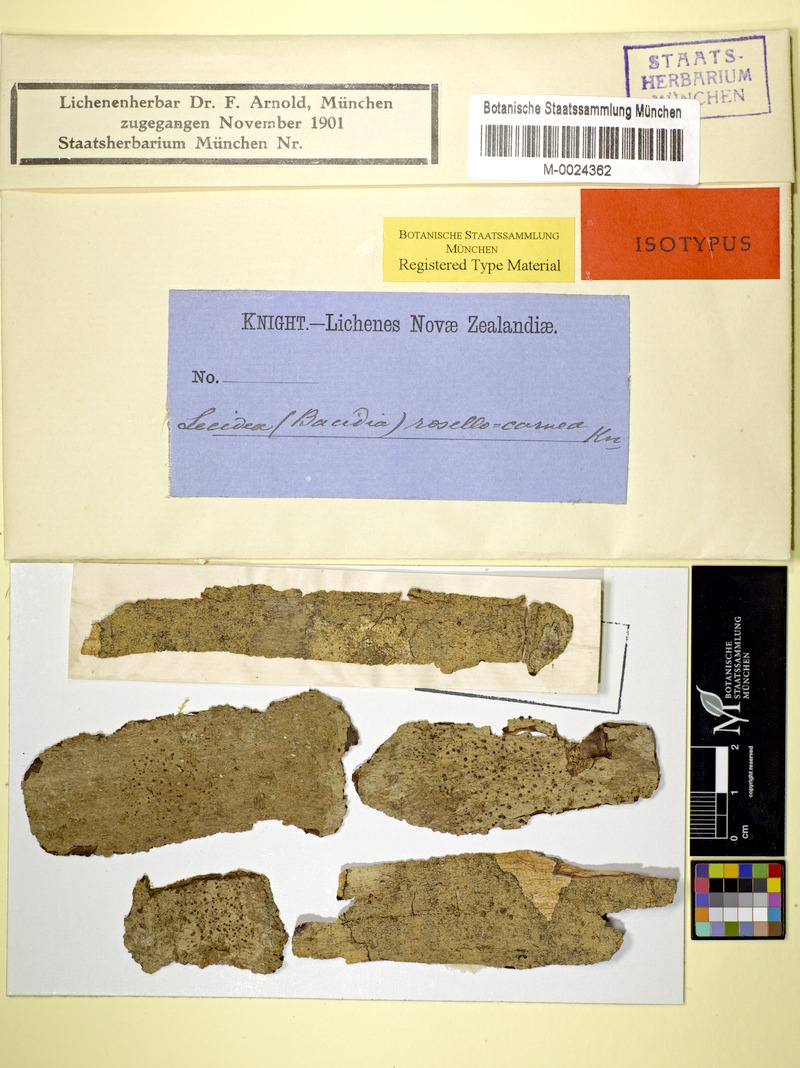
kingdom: Fungi
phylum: Ascomycota
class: Lecanoromycetes
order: Lecanorales
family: Ramalinaceae
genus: Bacidia
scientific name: Bacidia
